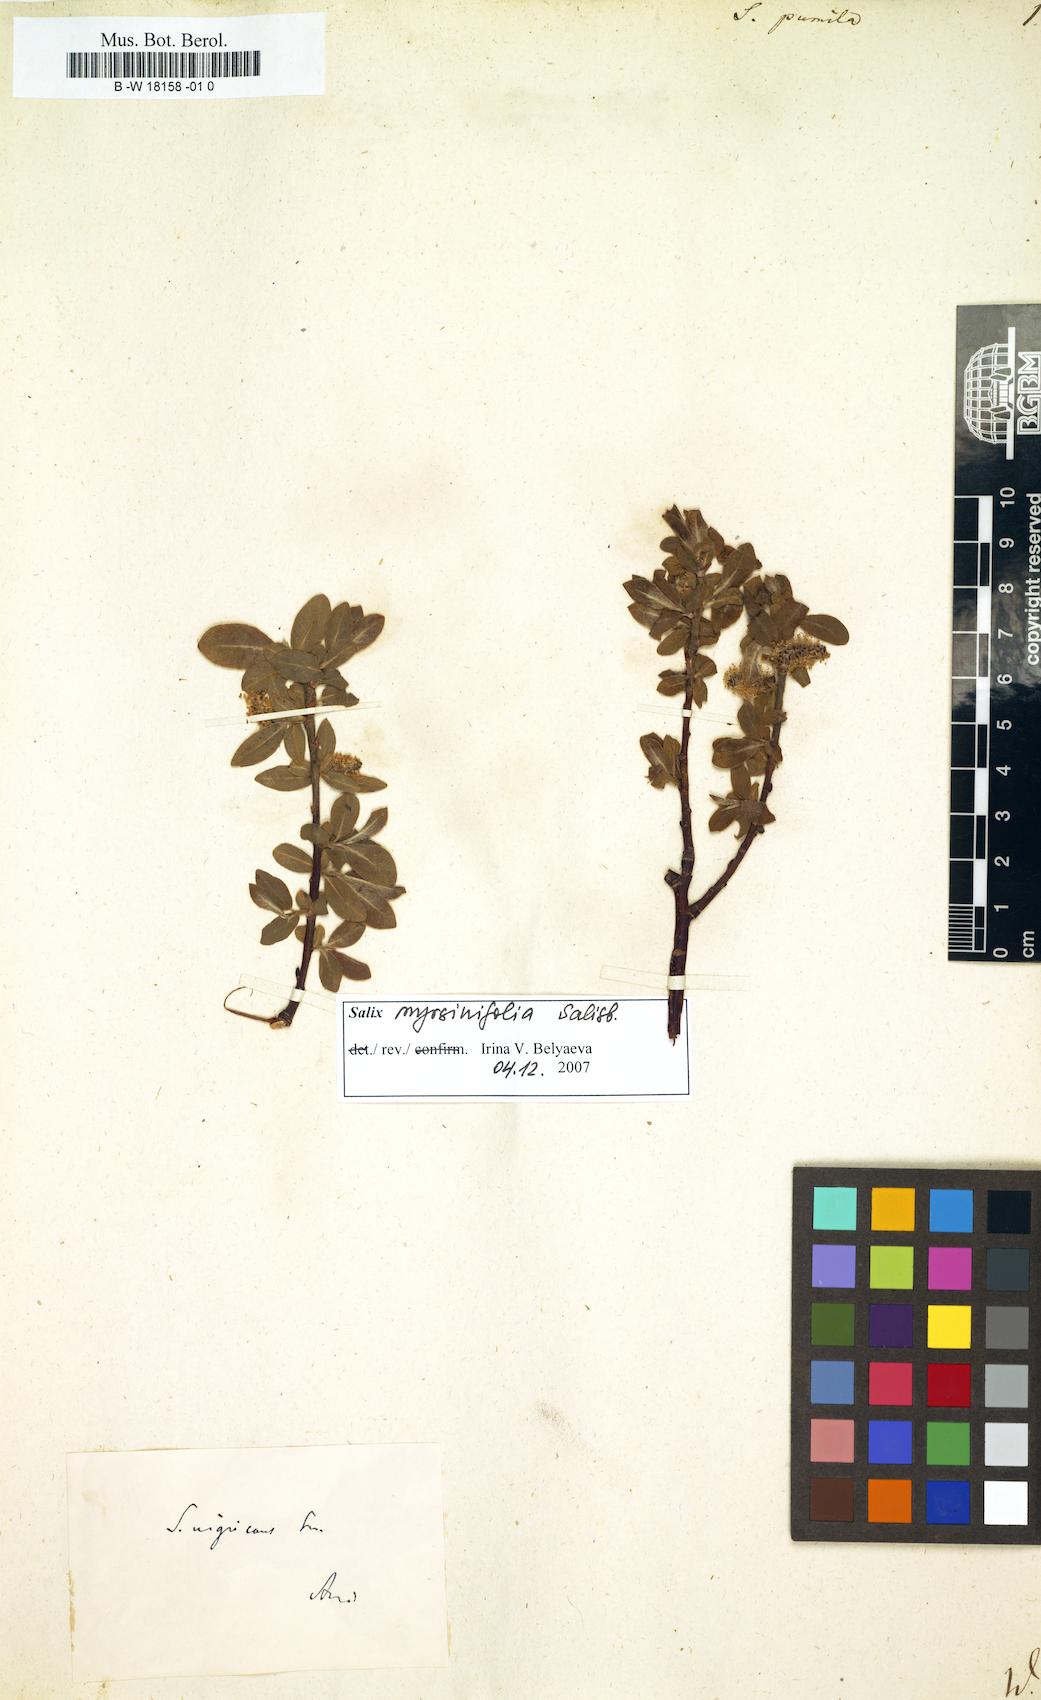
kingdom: Plantae
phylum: Tracheophyta
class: Magnoliopsida
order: Malpighiales
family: Salicaceae
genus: Salix
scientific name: Salix herbacea
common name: Dwarf willow
